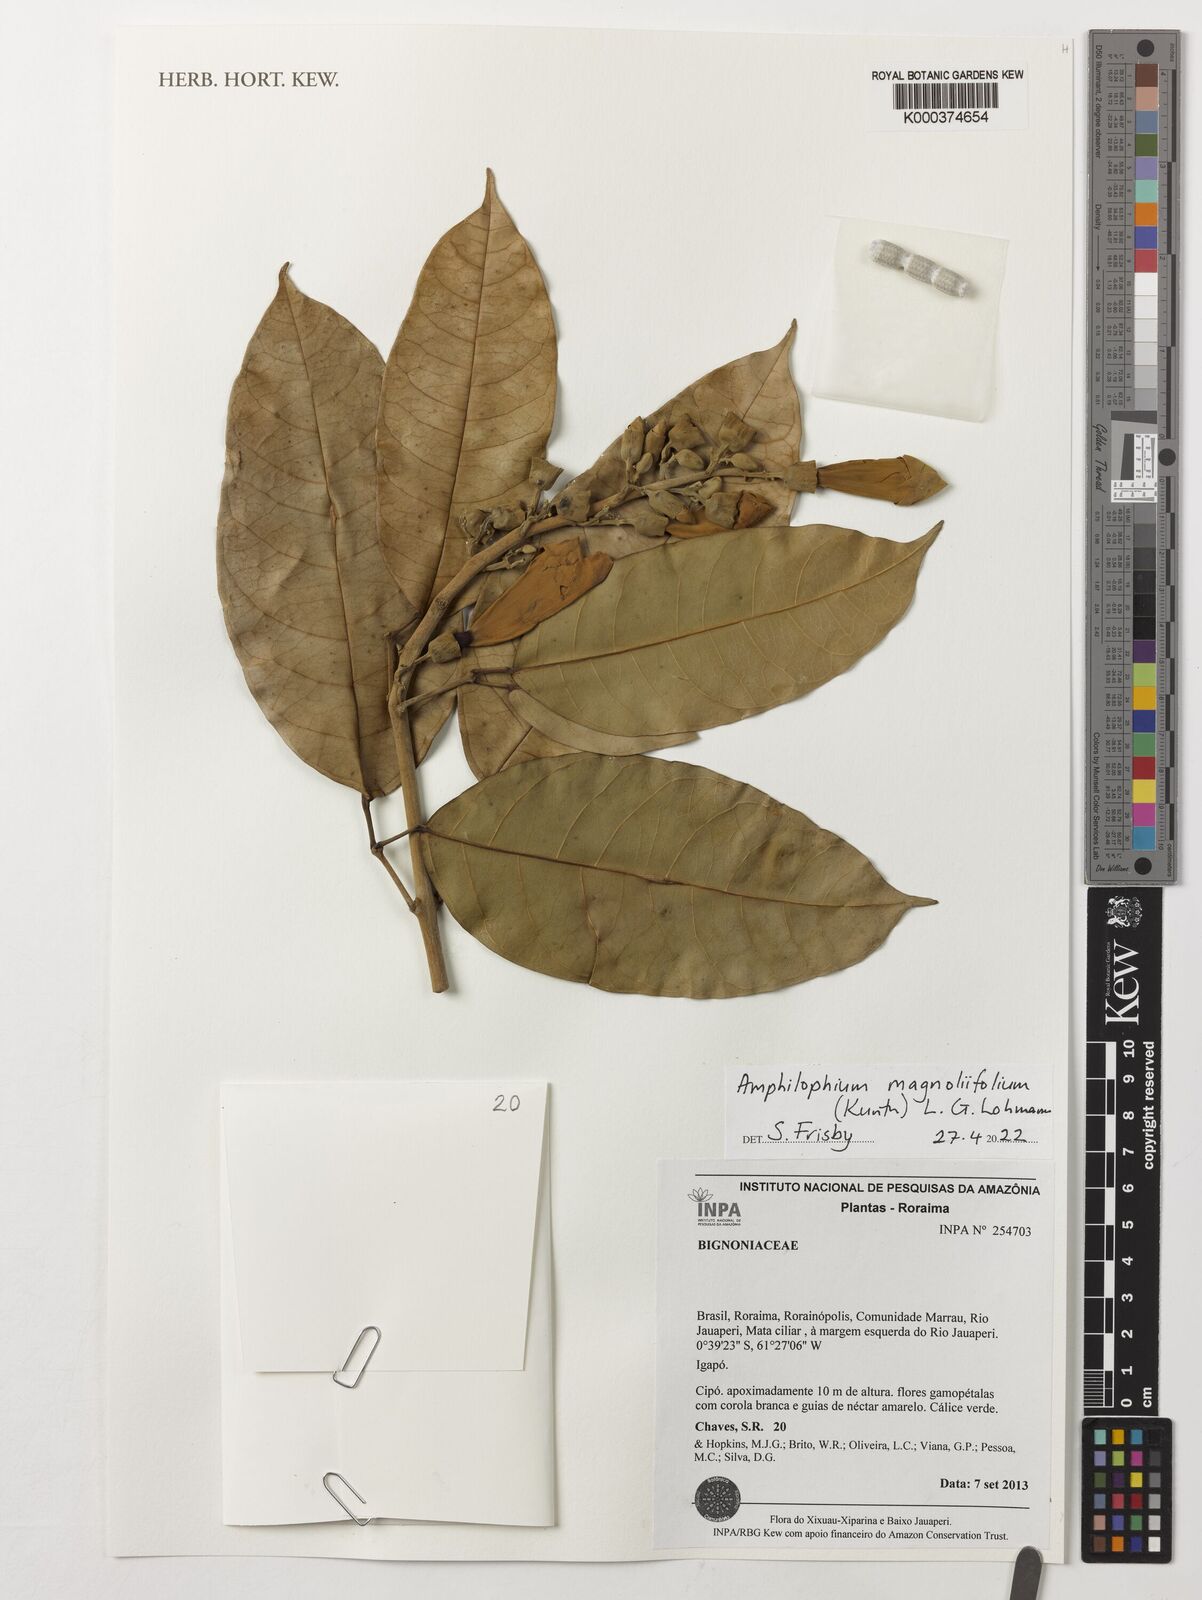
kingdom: Plantae
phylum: Tracheophyta
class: Magnoliopsida
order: Lamiales
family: Bignoniaceae
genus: Amphilophium
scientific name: Amphilophium magnoliifolium
